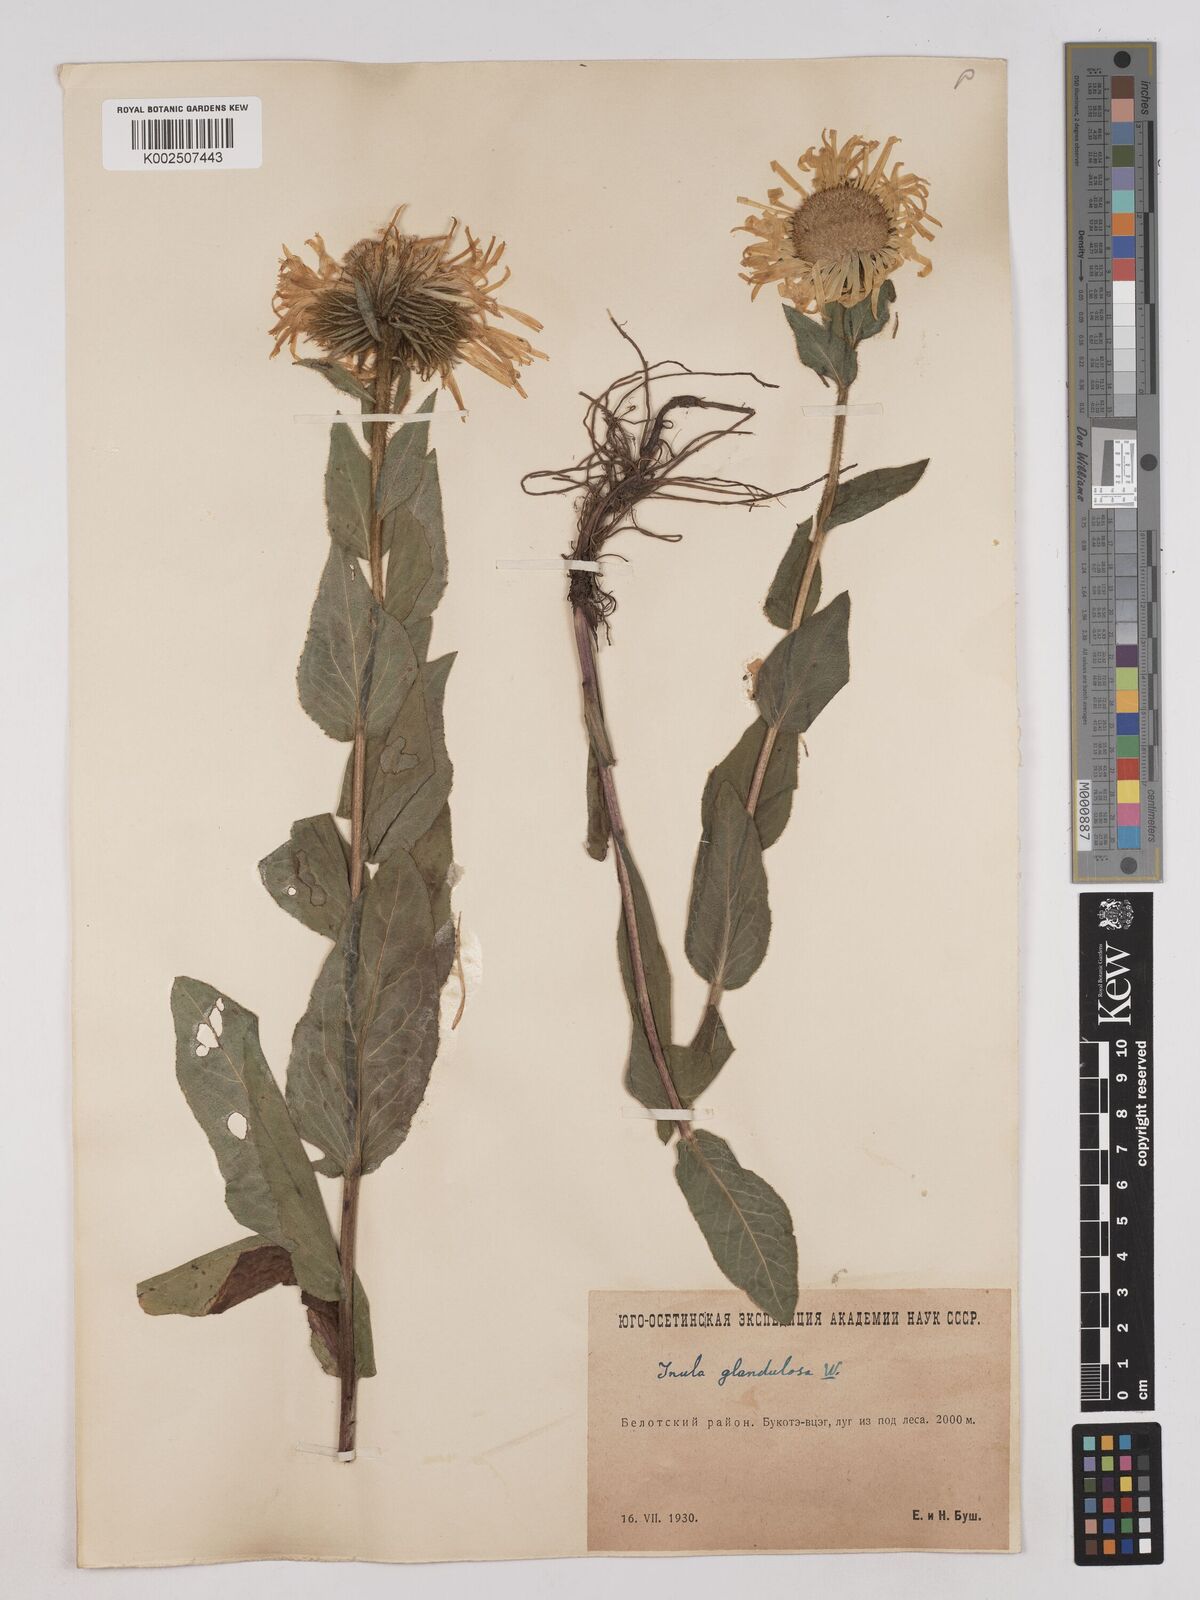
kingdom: Plantae
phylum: Tracheophyta
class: Magnoliopsida
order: Asterales
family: Asteraceae
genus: Pentanema
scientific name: Pentanema orientale
